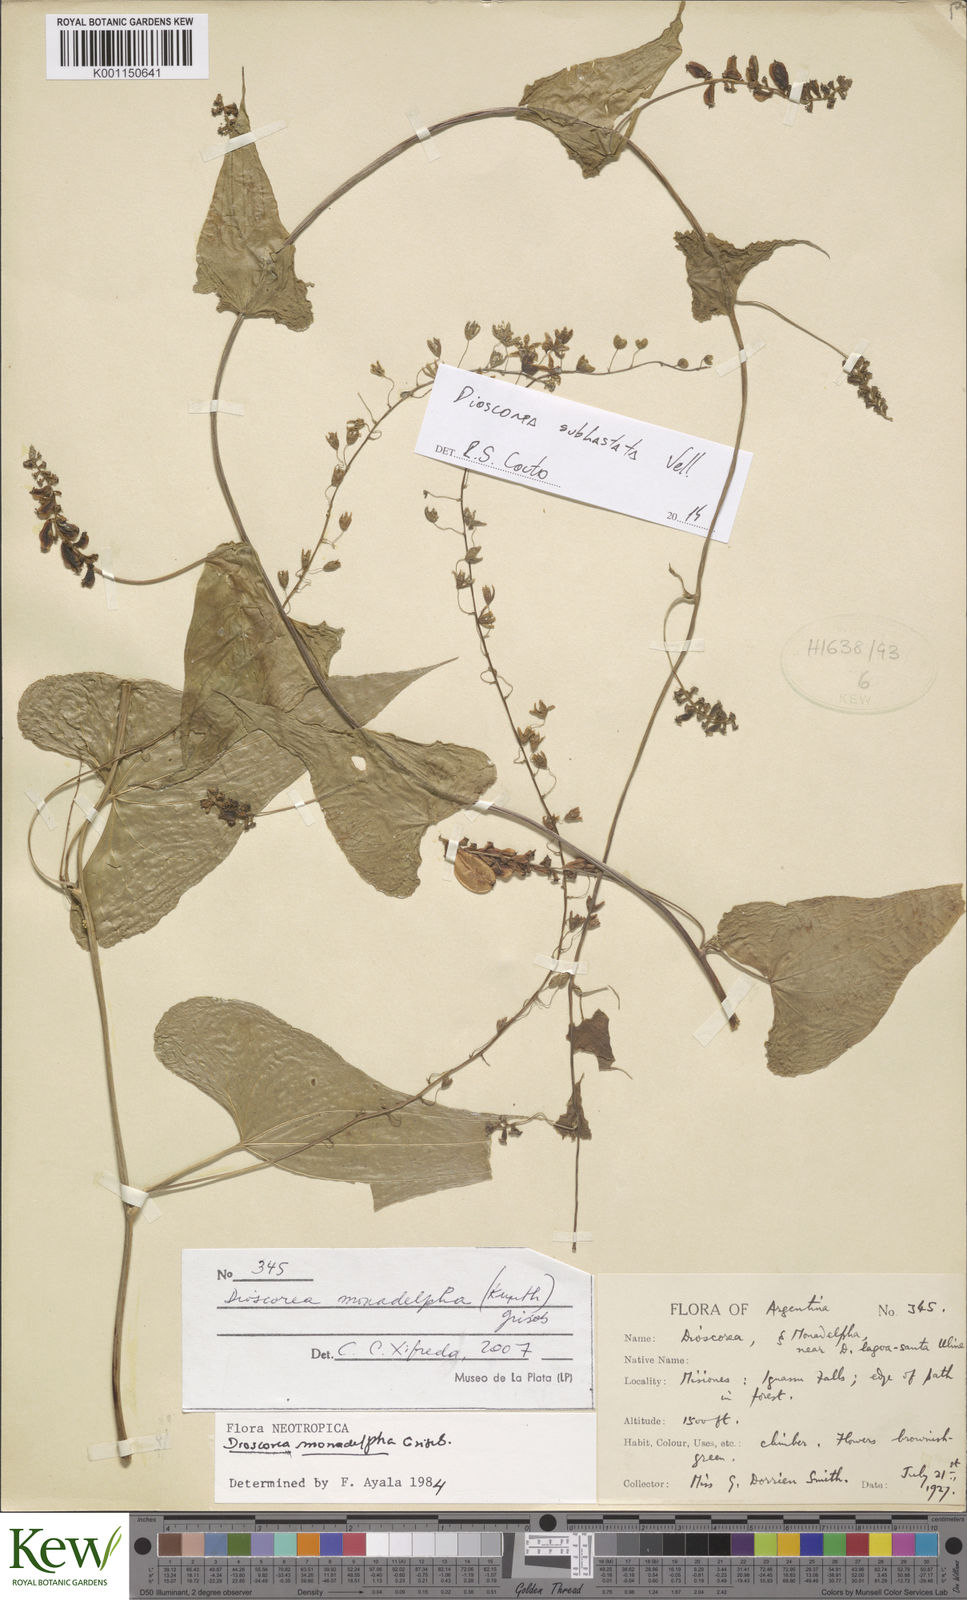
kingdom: Plantae
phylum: Tracheophyta
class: Liliopsida
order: Dioscoreales
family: Dioscoreaceae
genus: Dioscorea
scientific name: Dioscorea cienegensis
